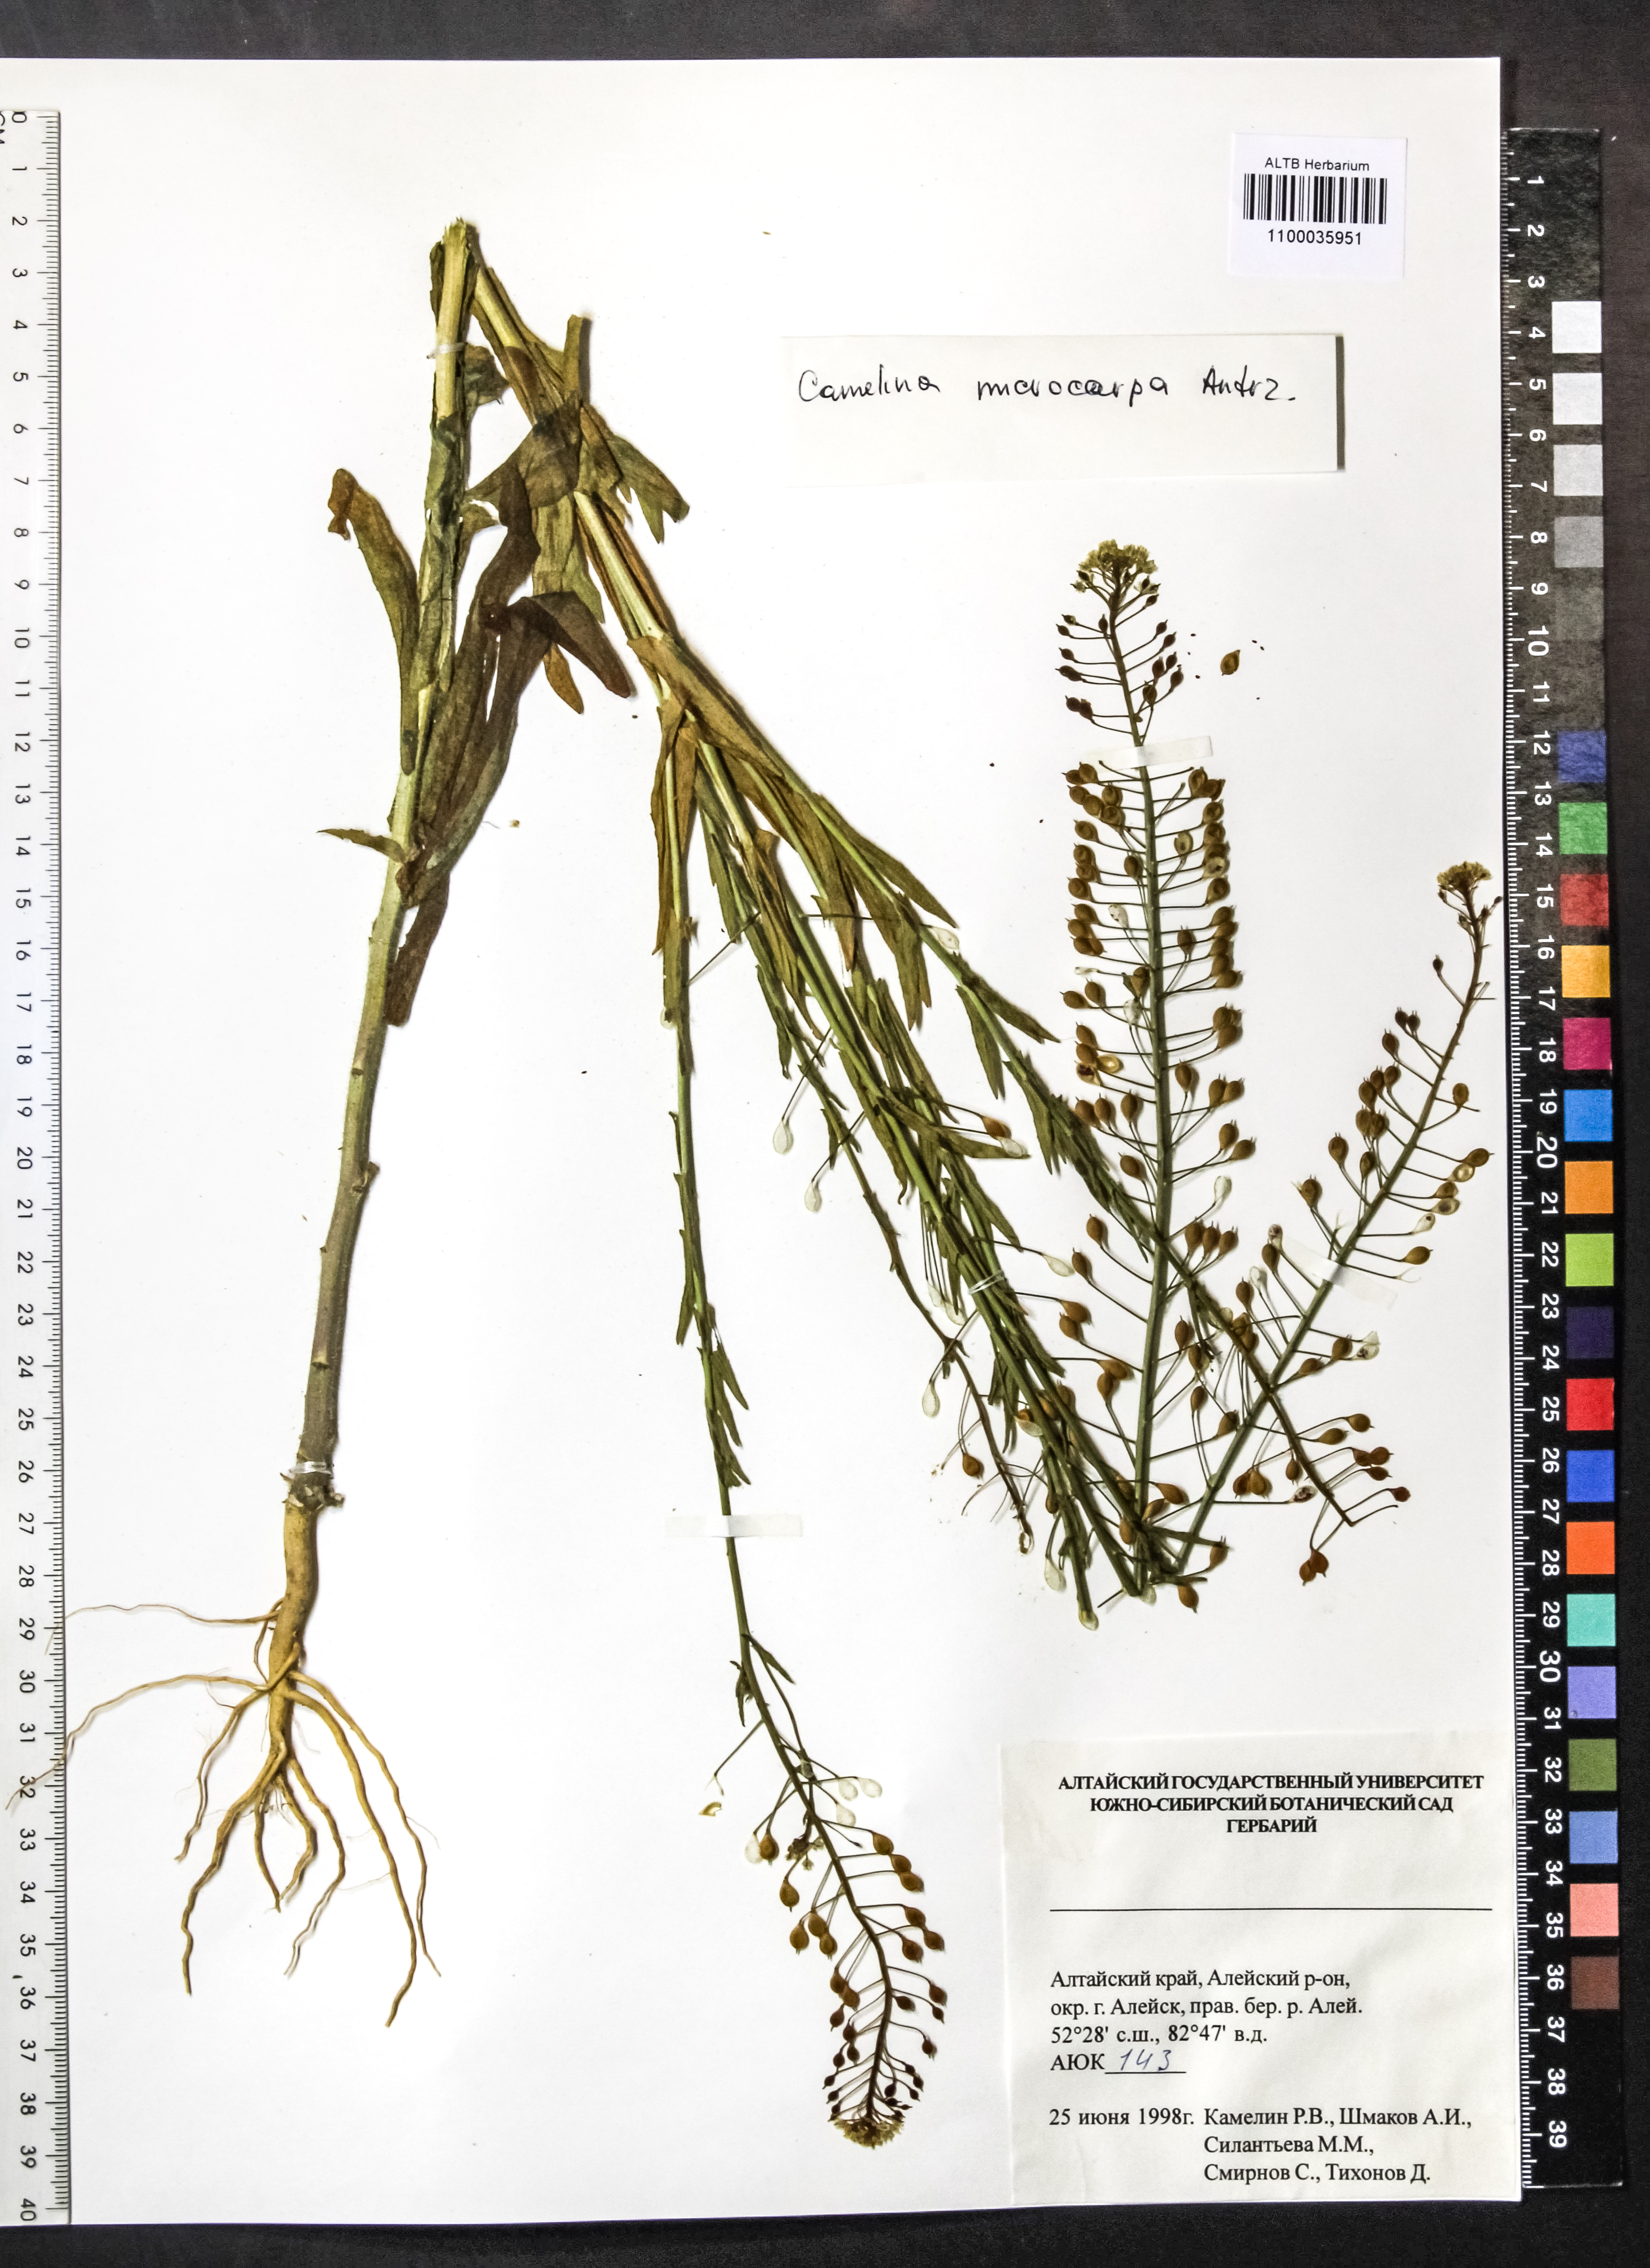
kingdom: Plantae
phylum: Tracheophyta
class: Magnoliopsida
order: Brassicales
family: Brassicaceae
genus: Camelina
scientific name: Camelina microcarpa
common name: Lesser gold-of-pleasure
